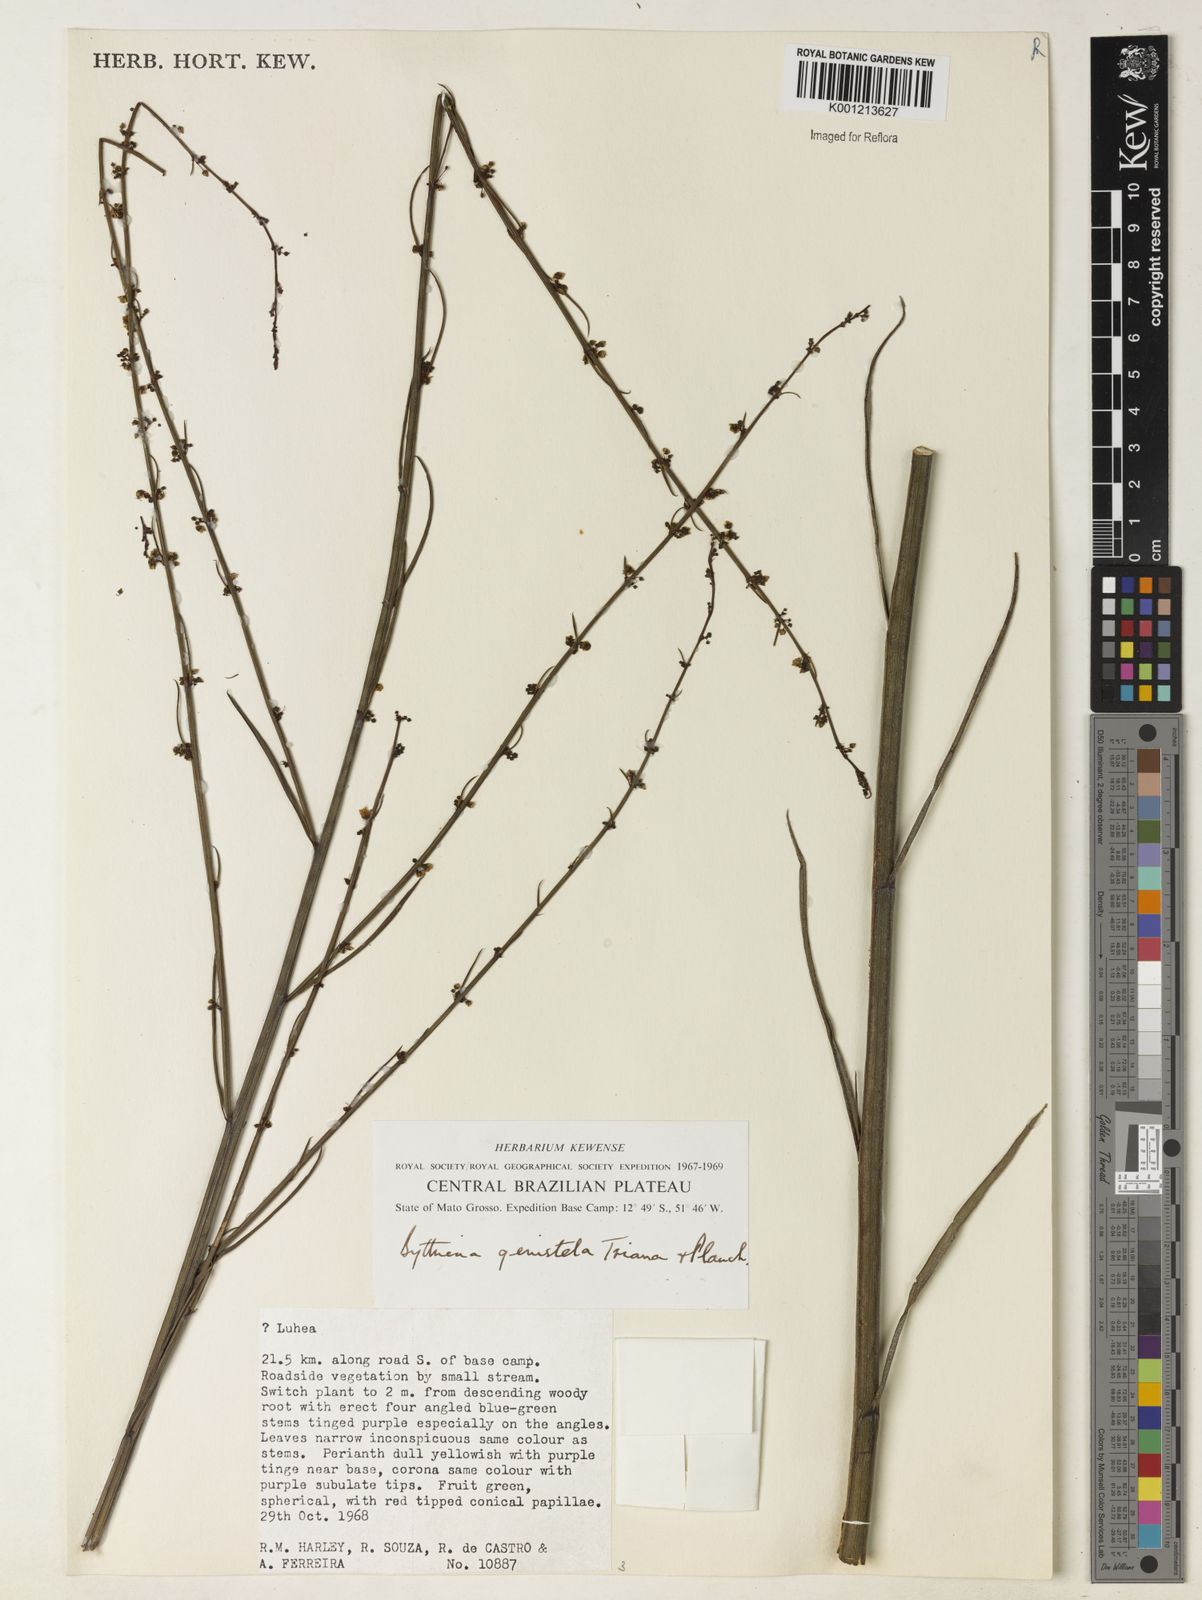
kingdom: Plantae
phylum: Tracheophyta
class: Magnoliopsida
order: Malvales
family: Malvaceae
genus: Byttneria
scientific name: Byttneria genistella
